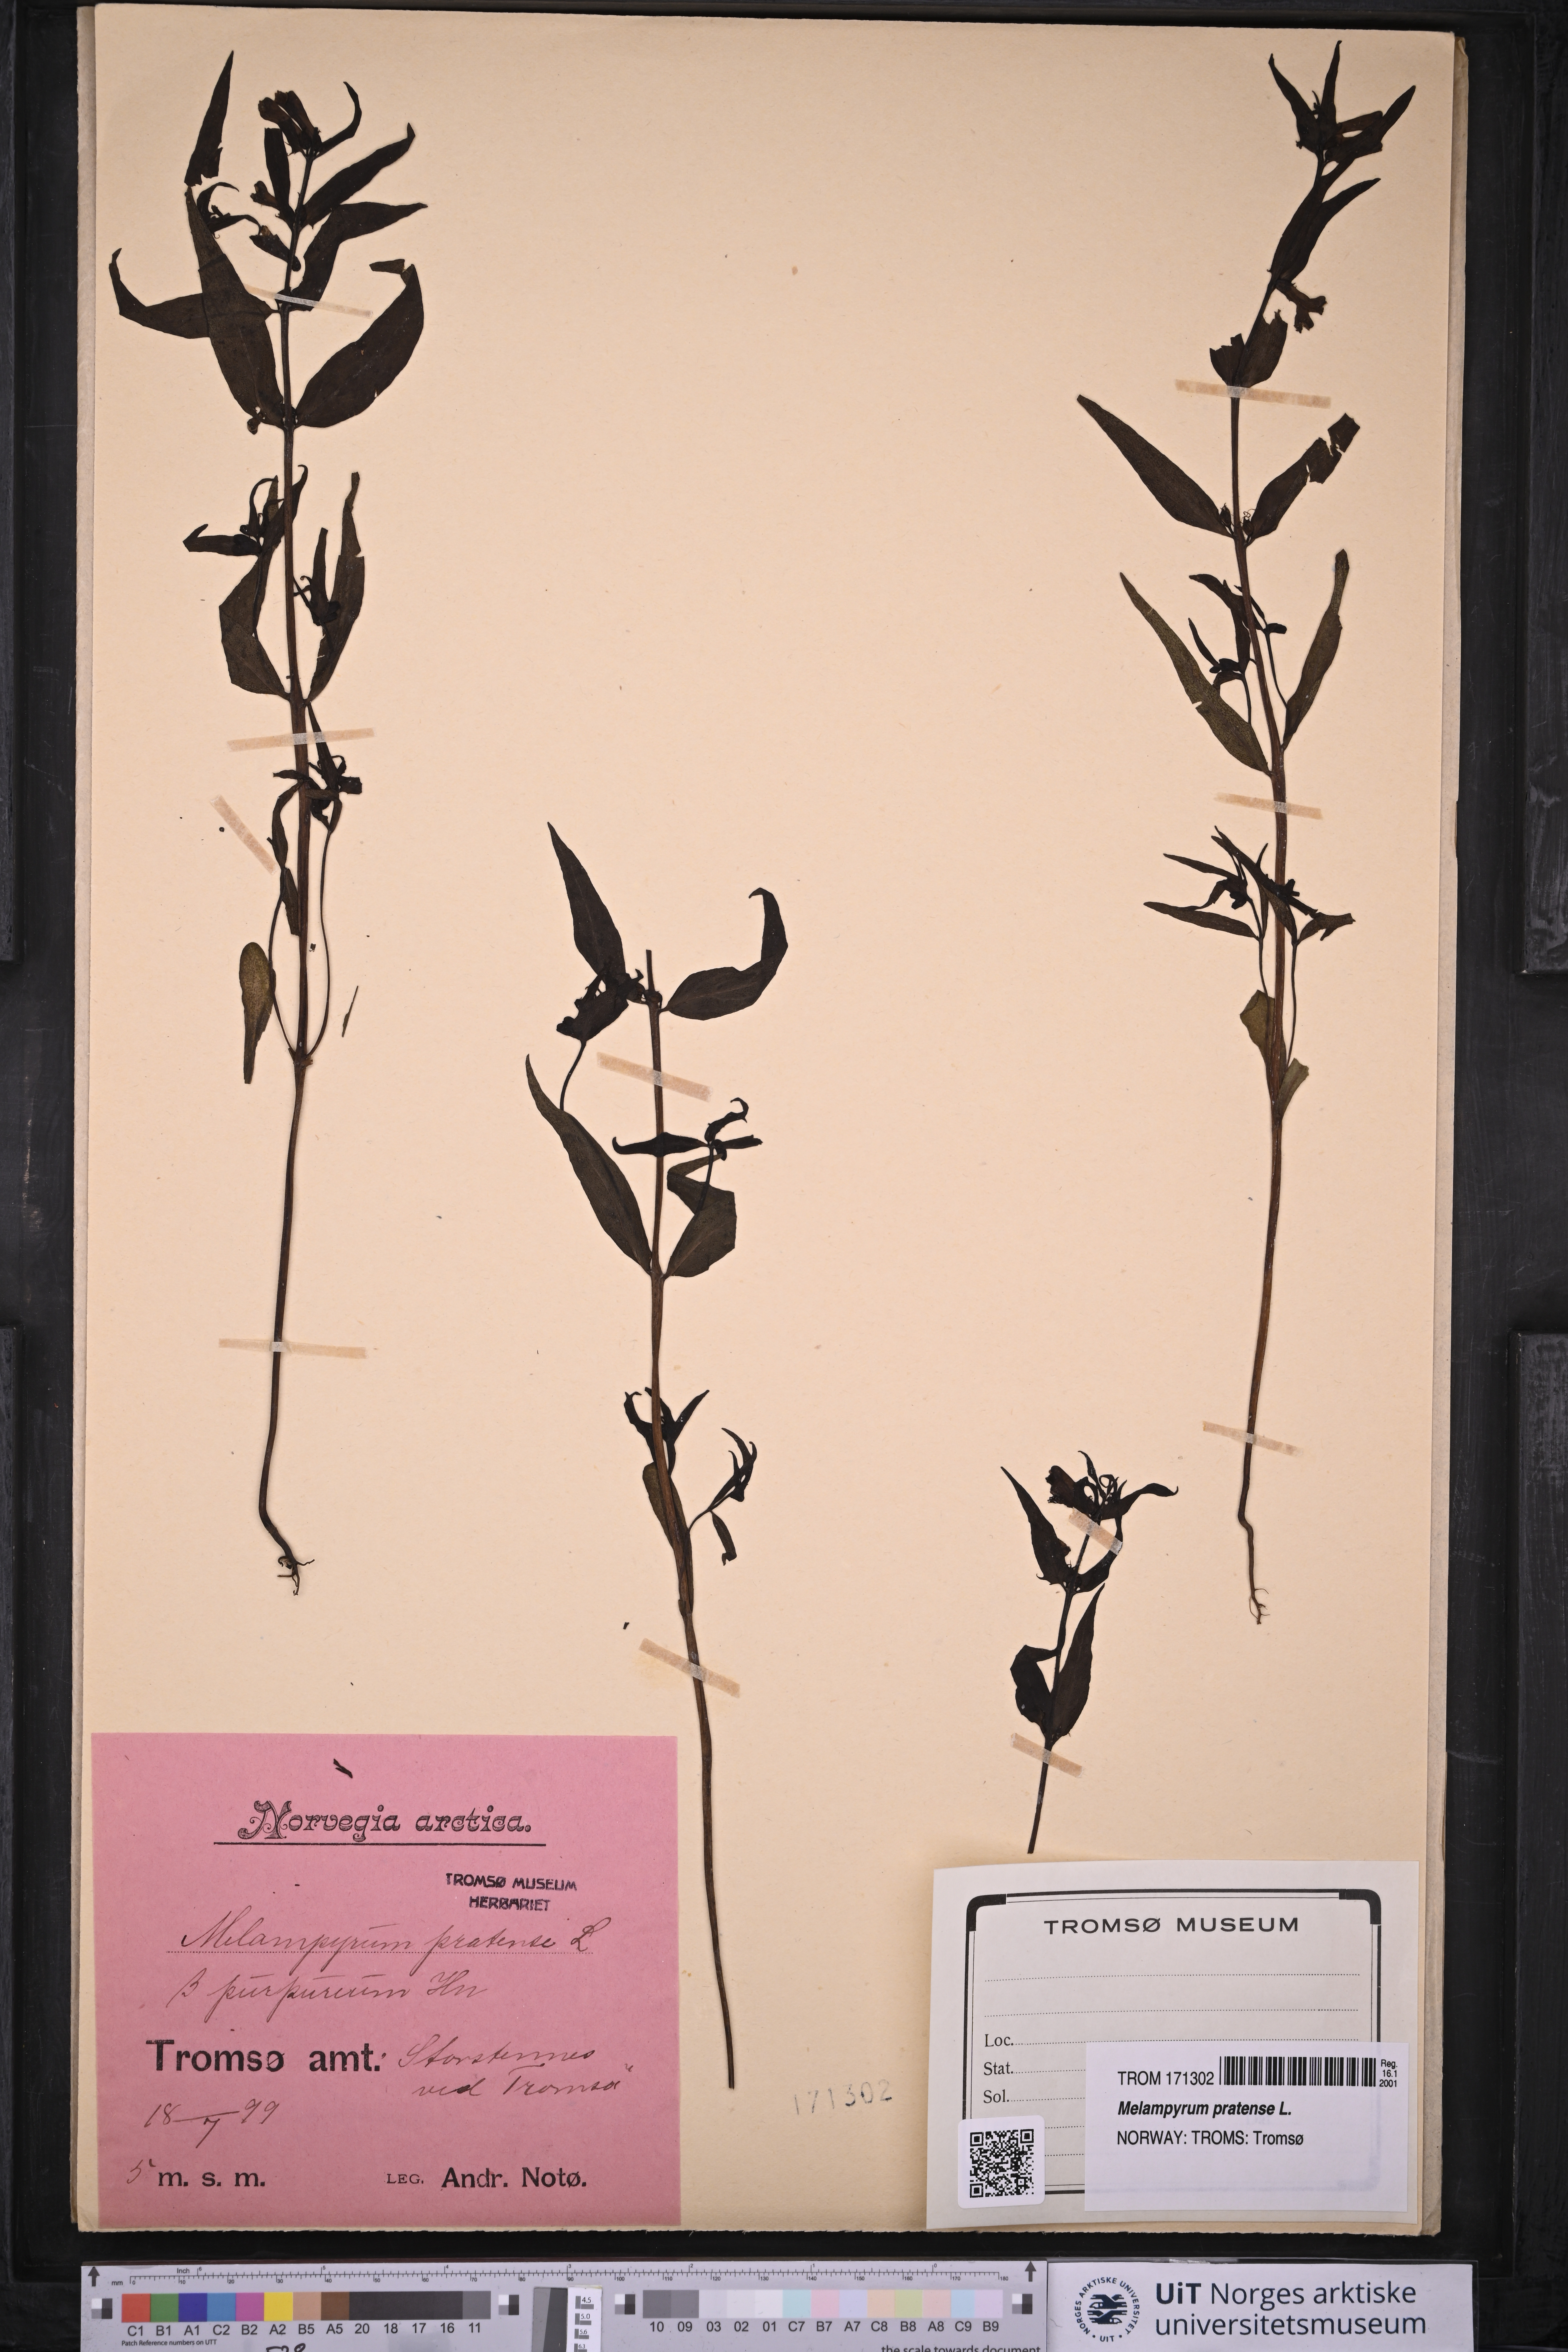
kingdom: Plantae
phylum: Tracheophyta
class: Magnoliopsida
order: Lamiales
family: Orobanchaceae
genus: Melampyrum
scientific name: Melampyrum pratense
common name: Common cow-wheat
